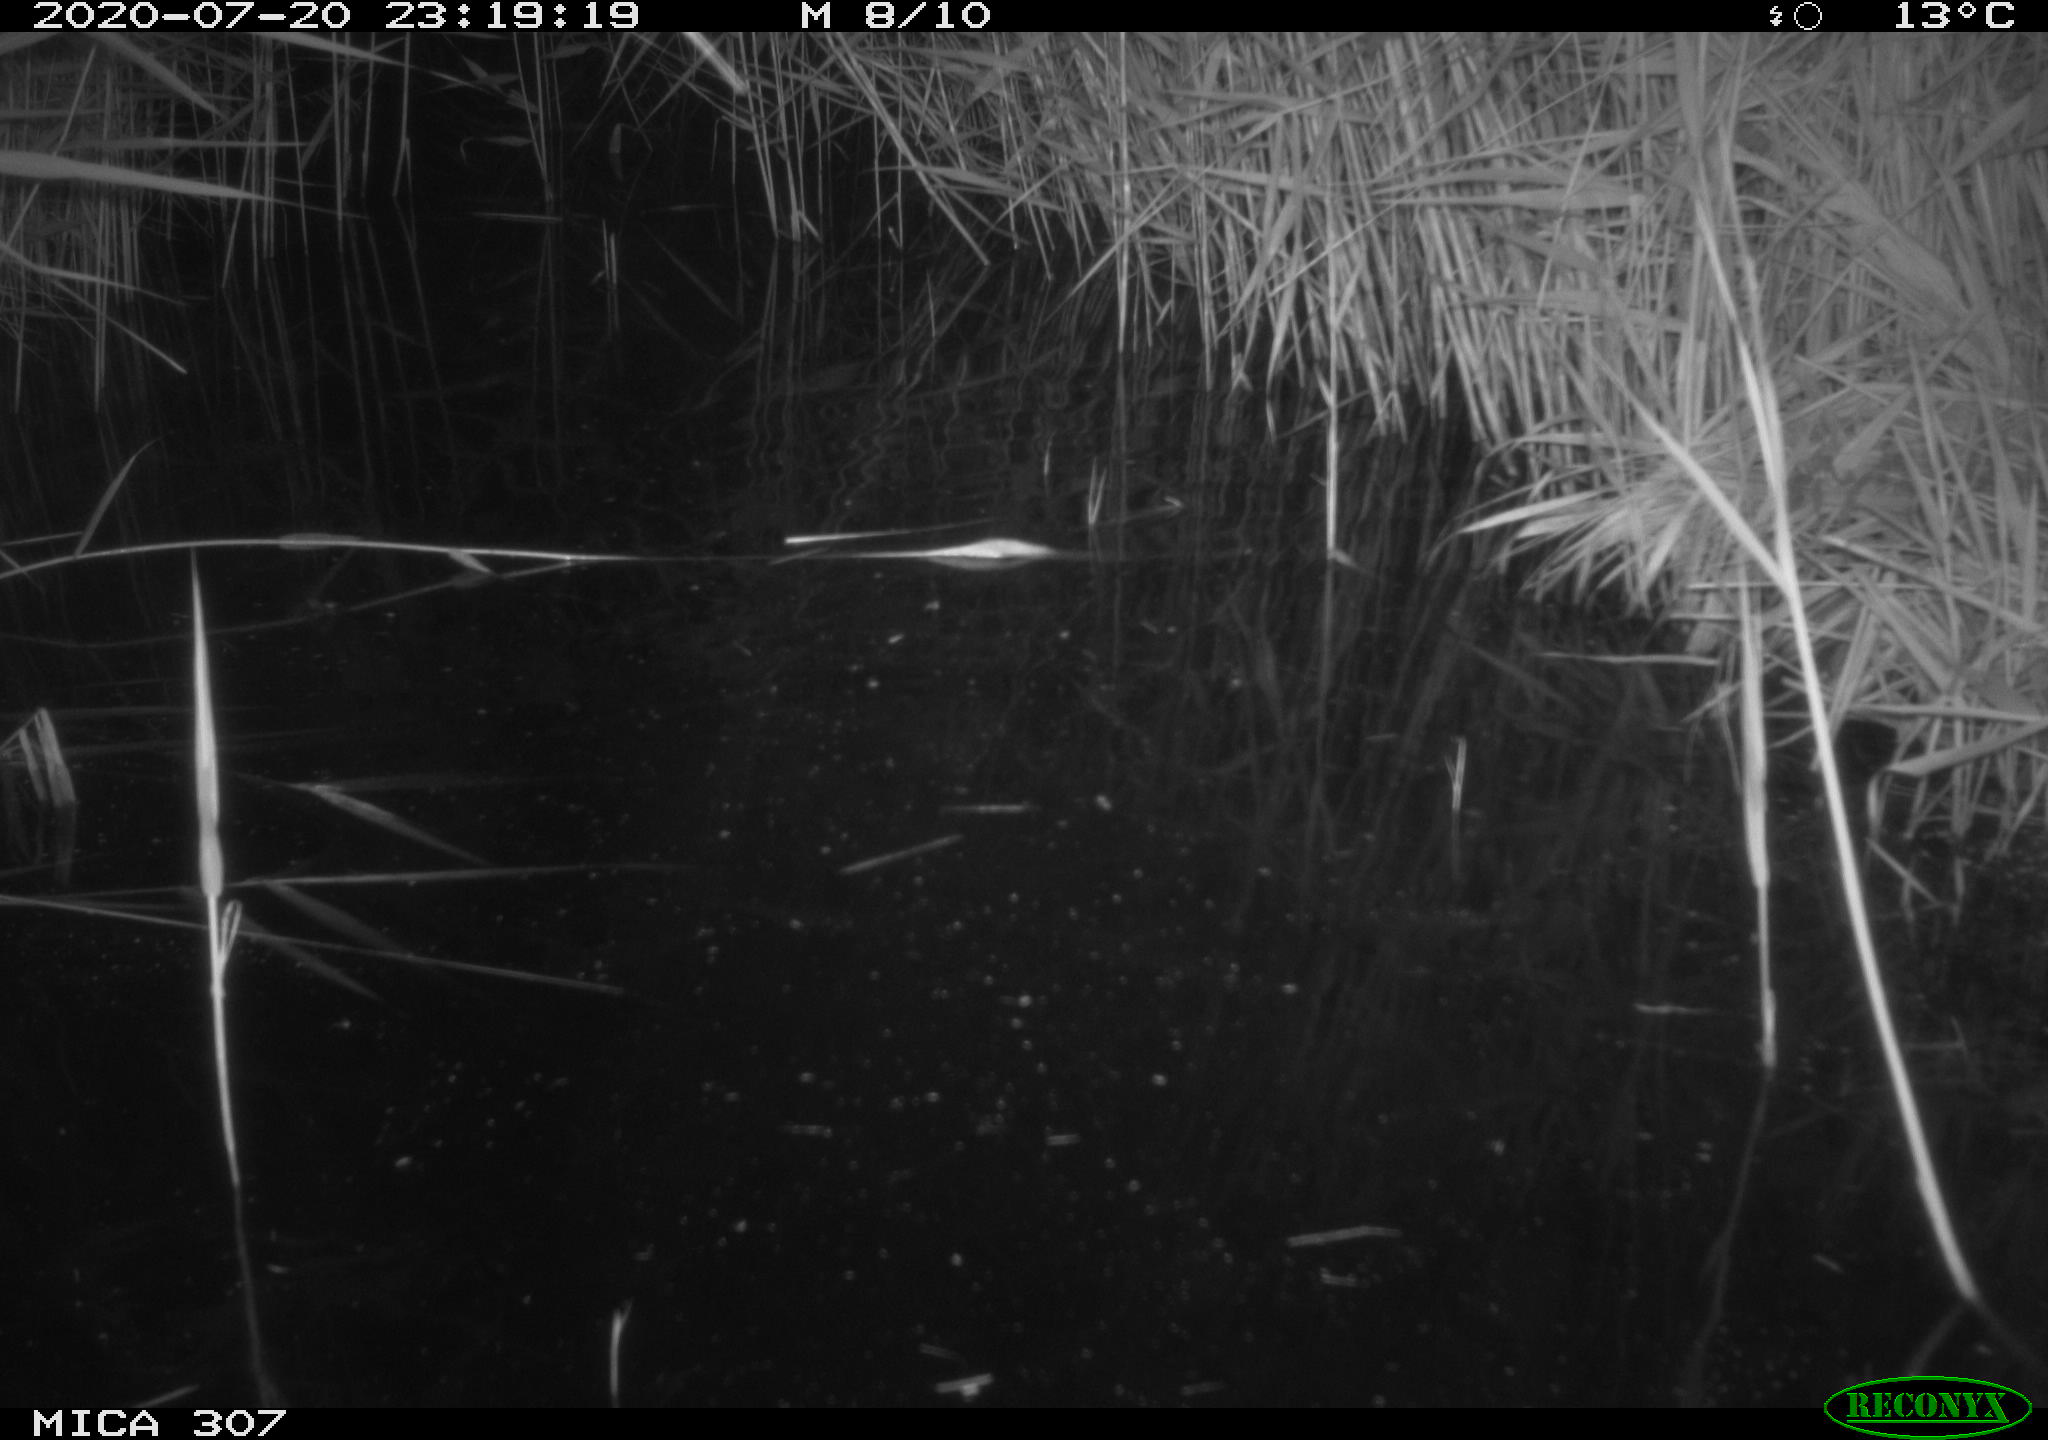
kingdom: Animalia
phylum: Chordata
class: Mammalia
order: Rodentia
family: Muridae
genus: Rattus
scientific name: Rattus norvegicus
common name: Brown rat
